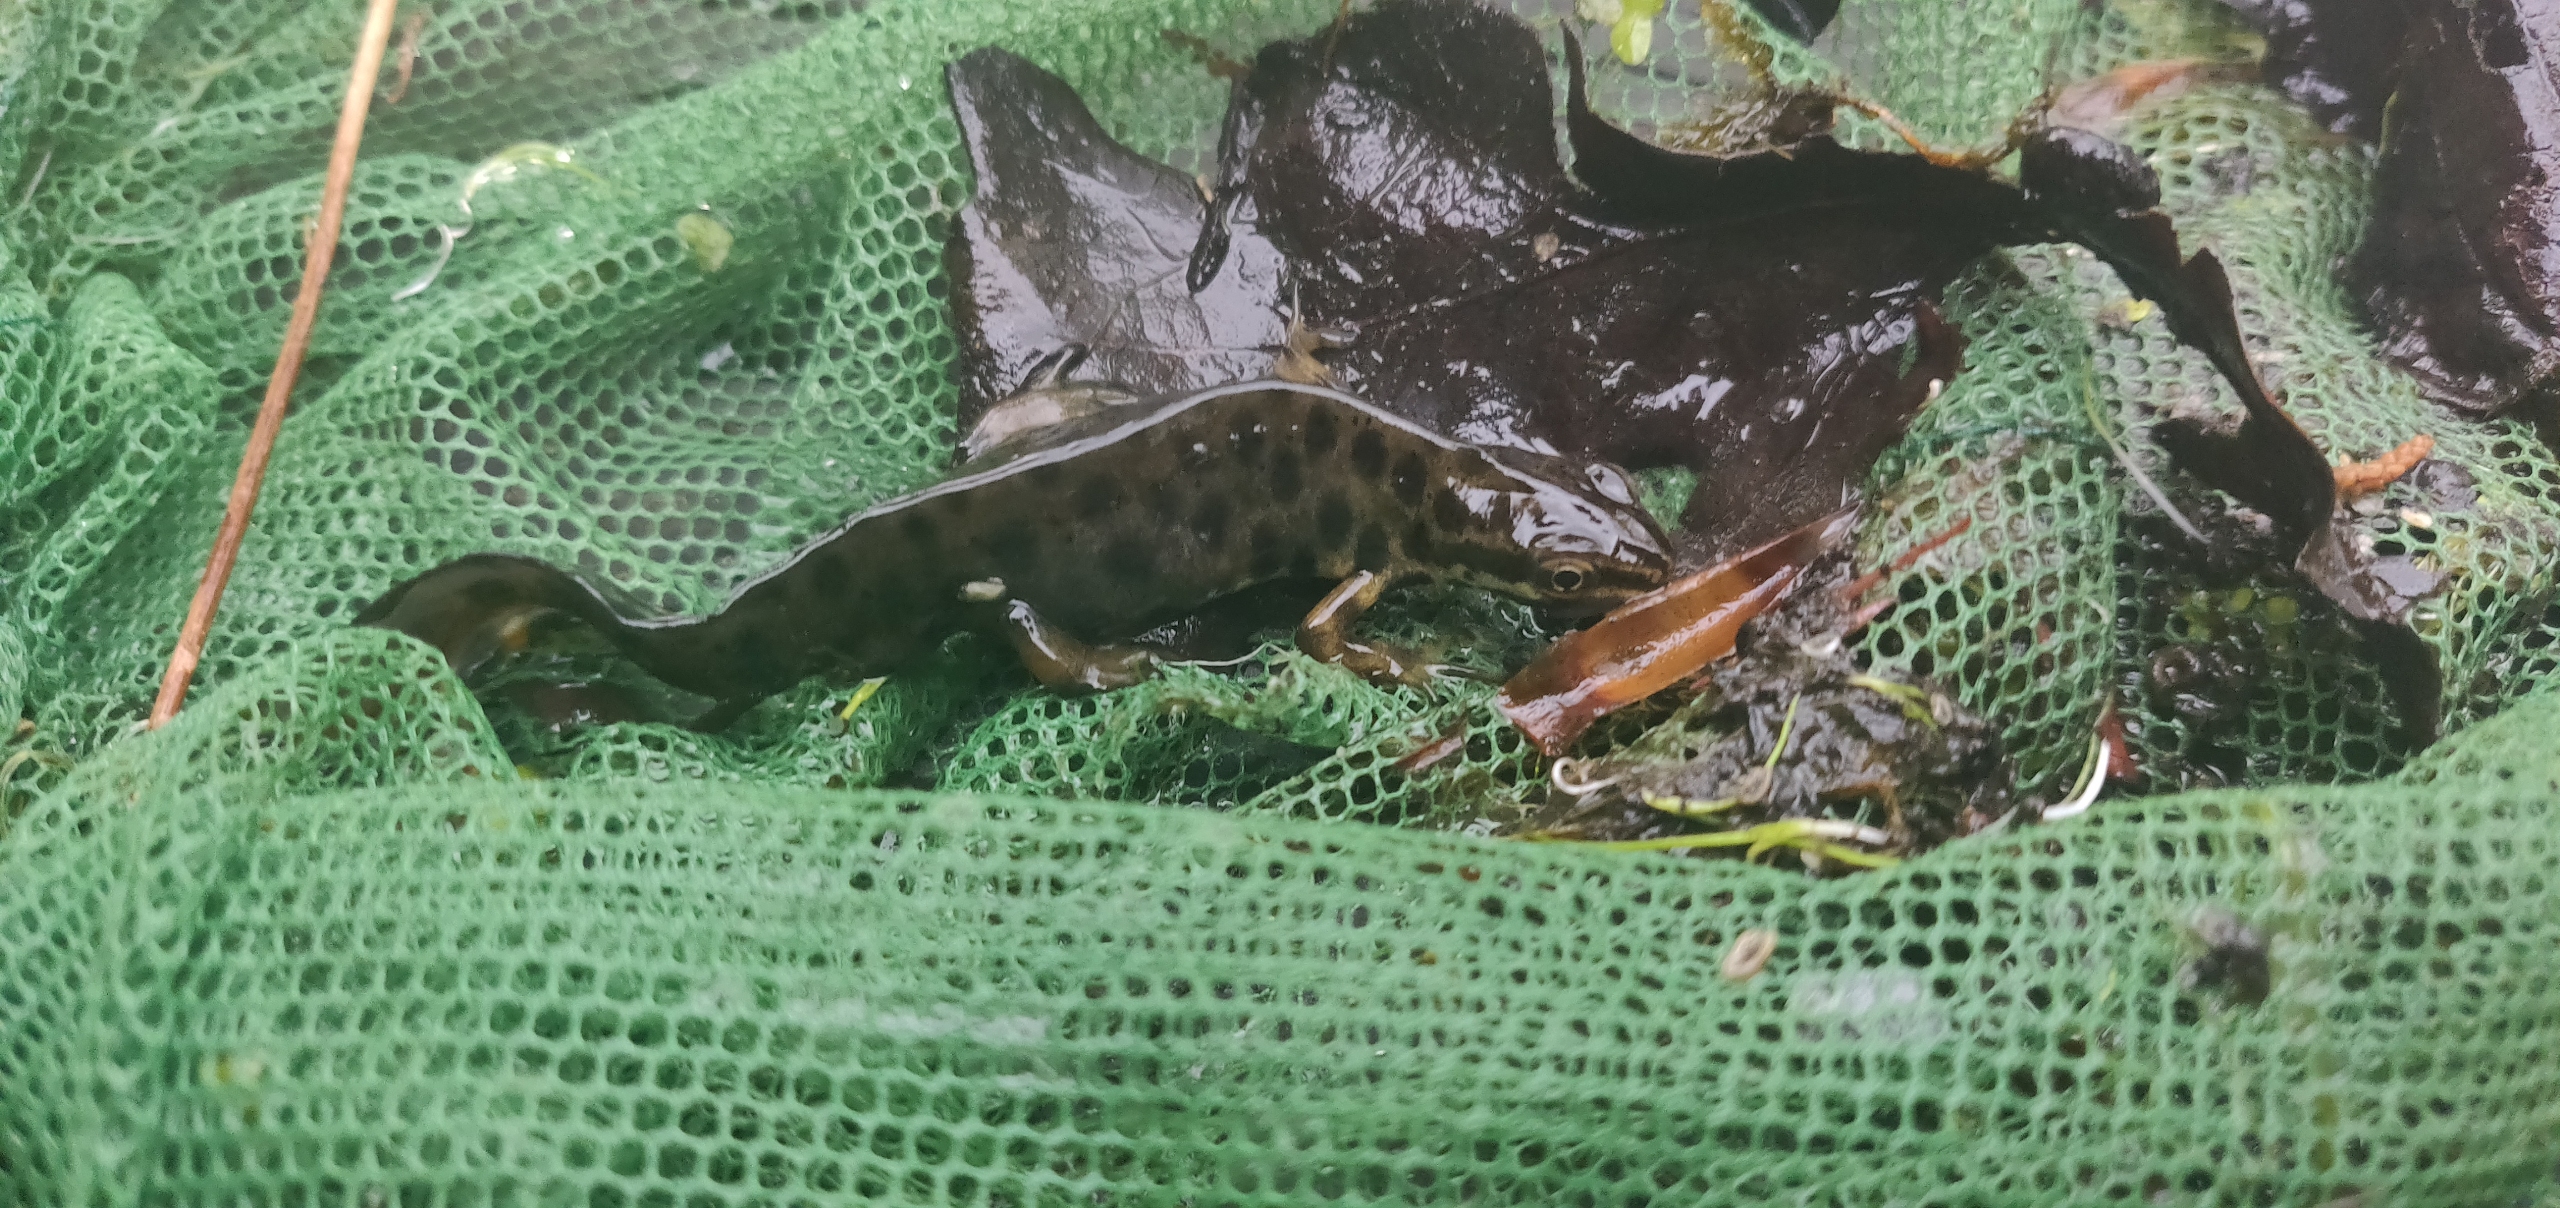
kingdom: Animalia
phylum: Chordata
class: Amphibia
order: Caudata
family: Salamandridae
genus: Lissotriton
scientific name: Lissotriton vulgaris
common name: Lille vandsalamander
